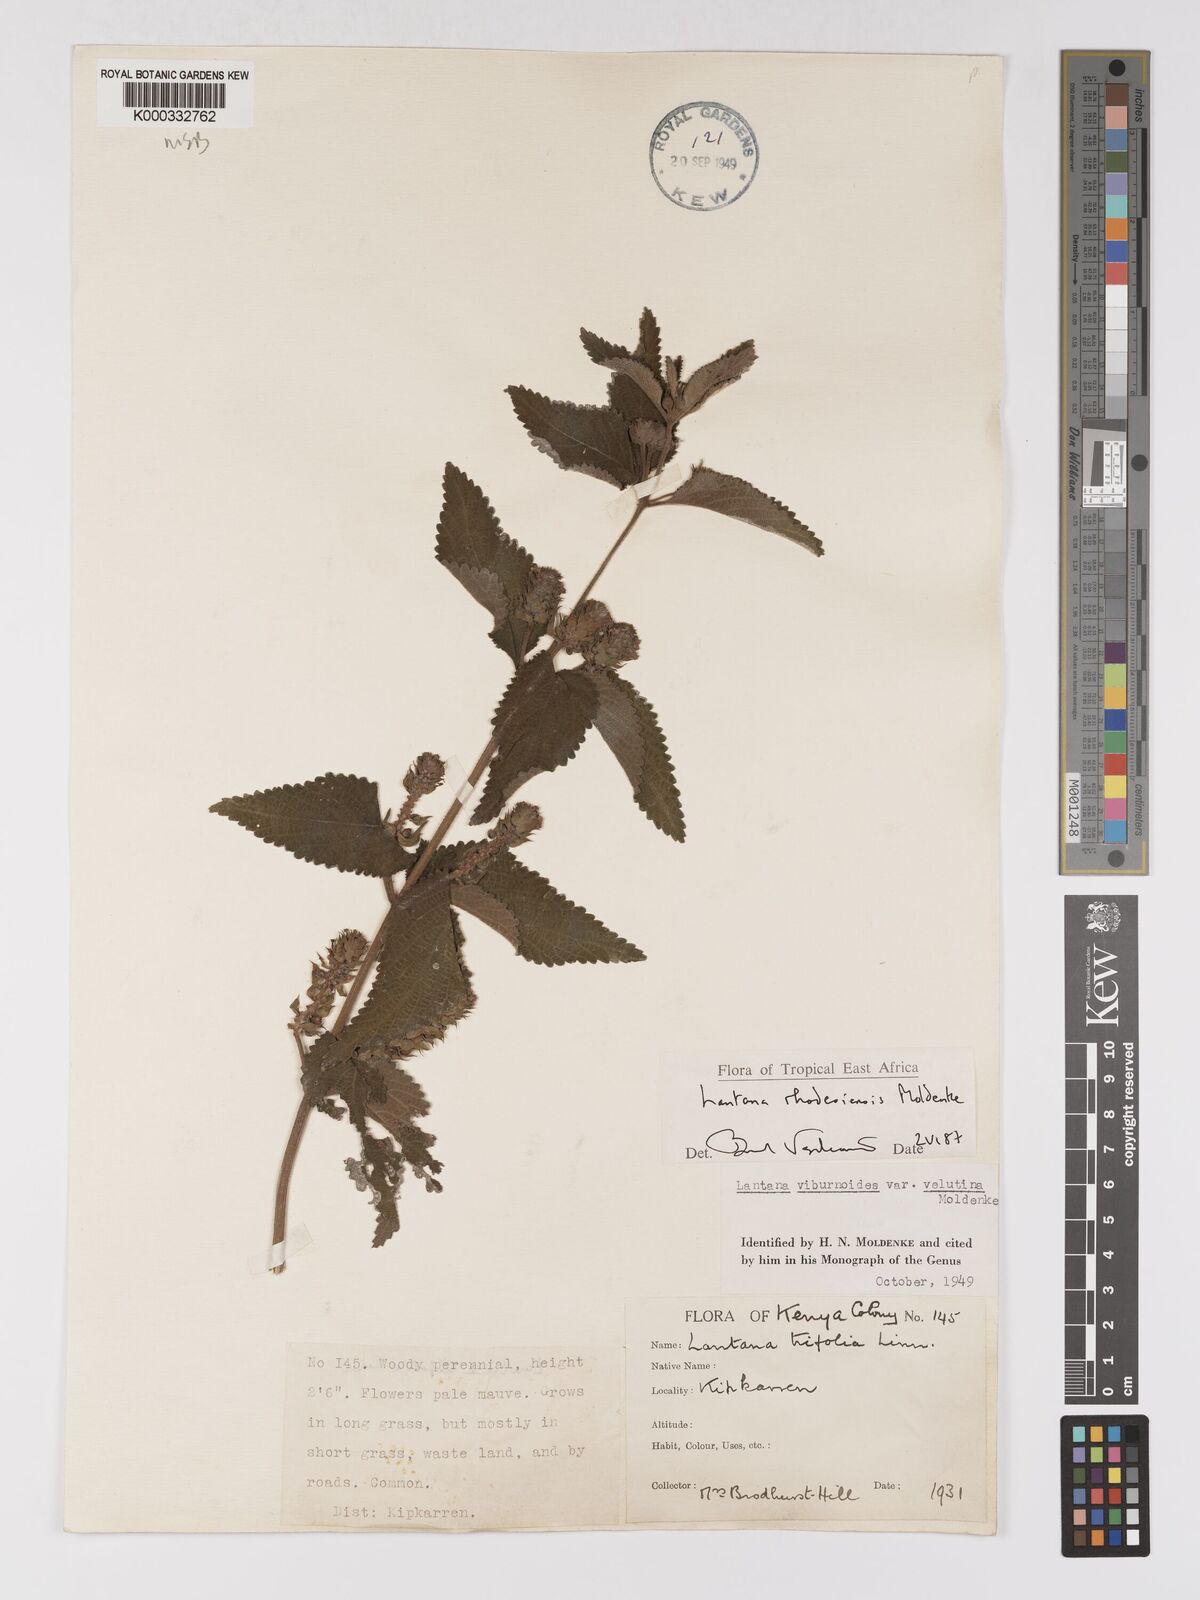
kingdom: Plantae
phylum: Tracheophyta
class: Magnoliopsida
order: Lamiales
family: Verbenaceae
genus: Lantana
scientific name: Lantana ukambensis
